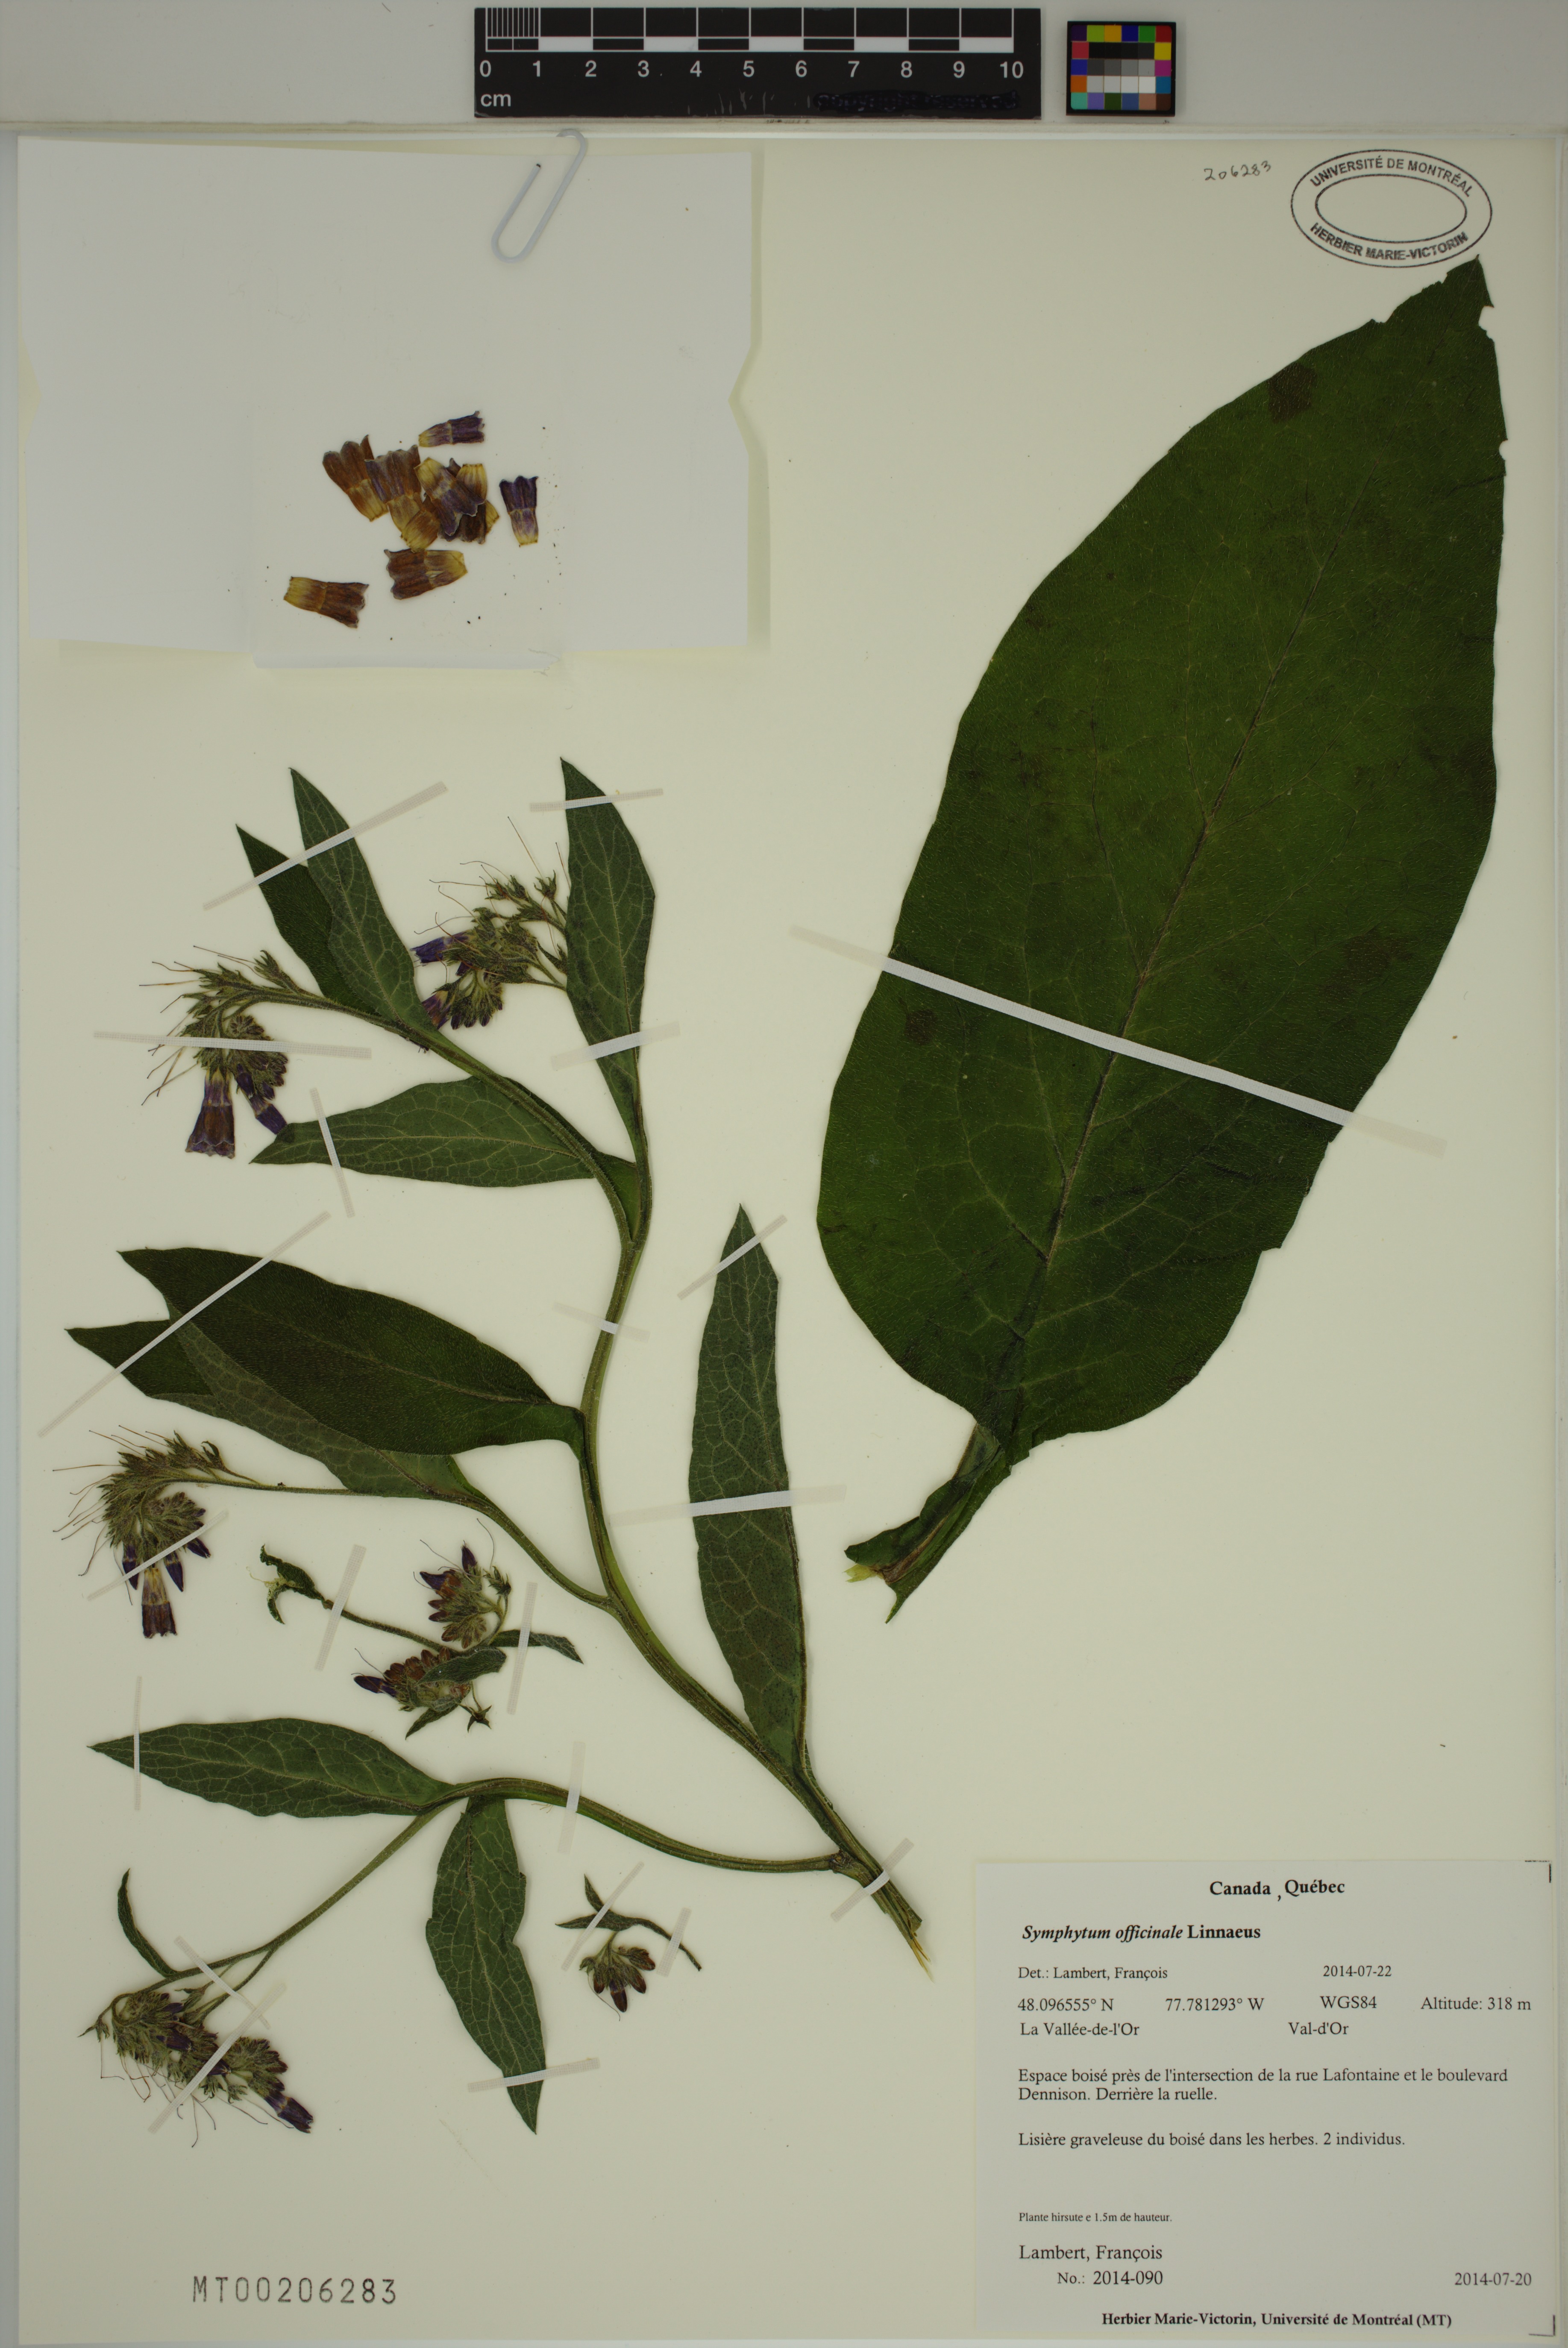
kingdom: Plantae
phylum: Tracheophyta
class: Magnoliopsida
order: Boraginales
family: Boraginaceae
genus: Symphytum
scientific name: Symphytum officinale
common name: Common comfrey
